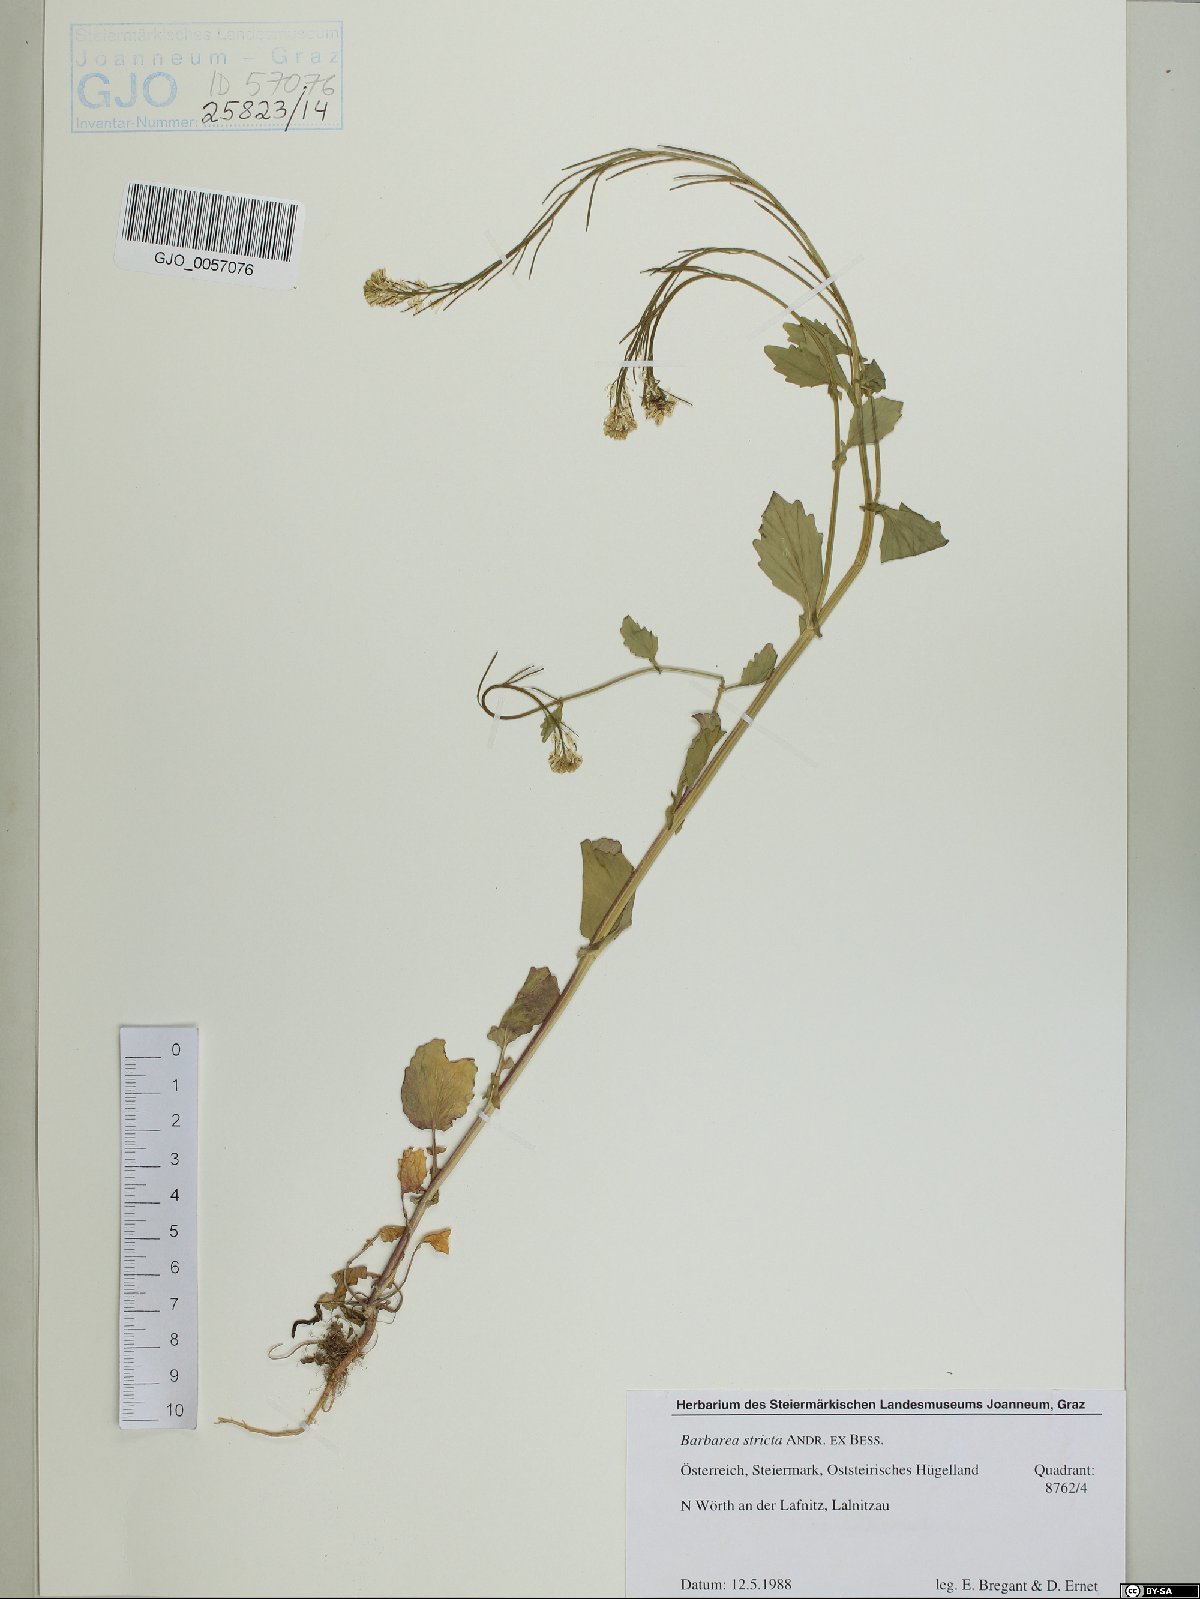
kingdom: Plantae
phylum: Tracheophyta
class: Magnoliopsida
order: Brassicales
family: Brassicaceae
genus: Barbarea
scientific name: Barbarea stricta
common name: Small-flowered winter-cress
